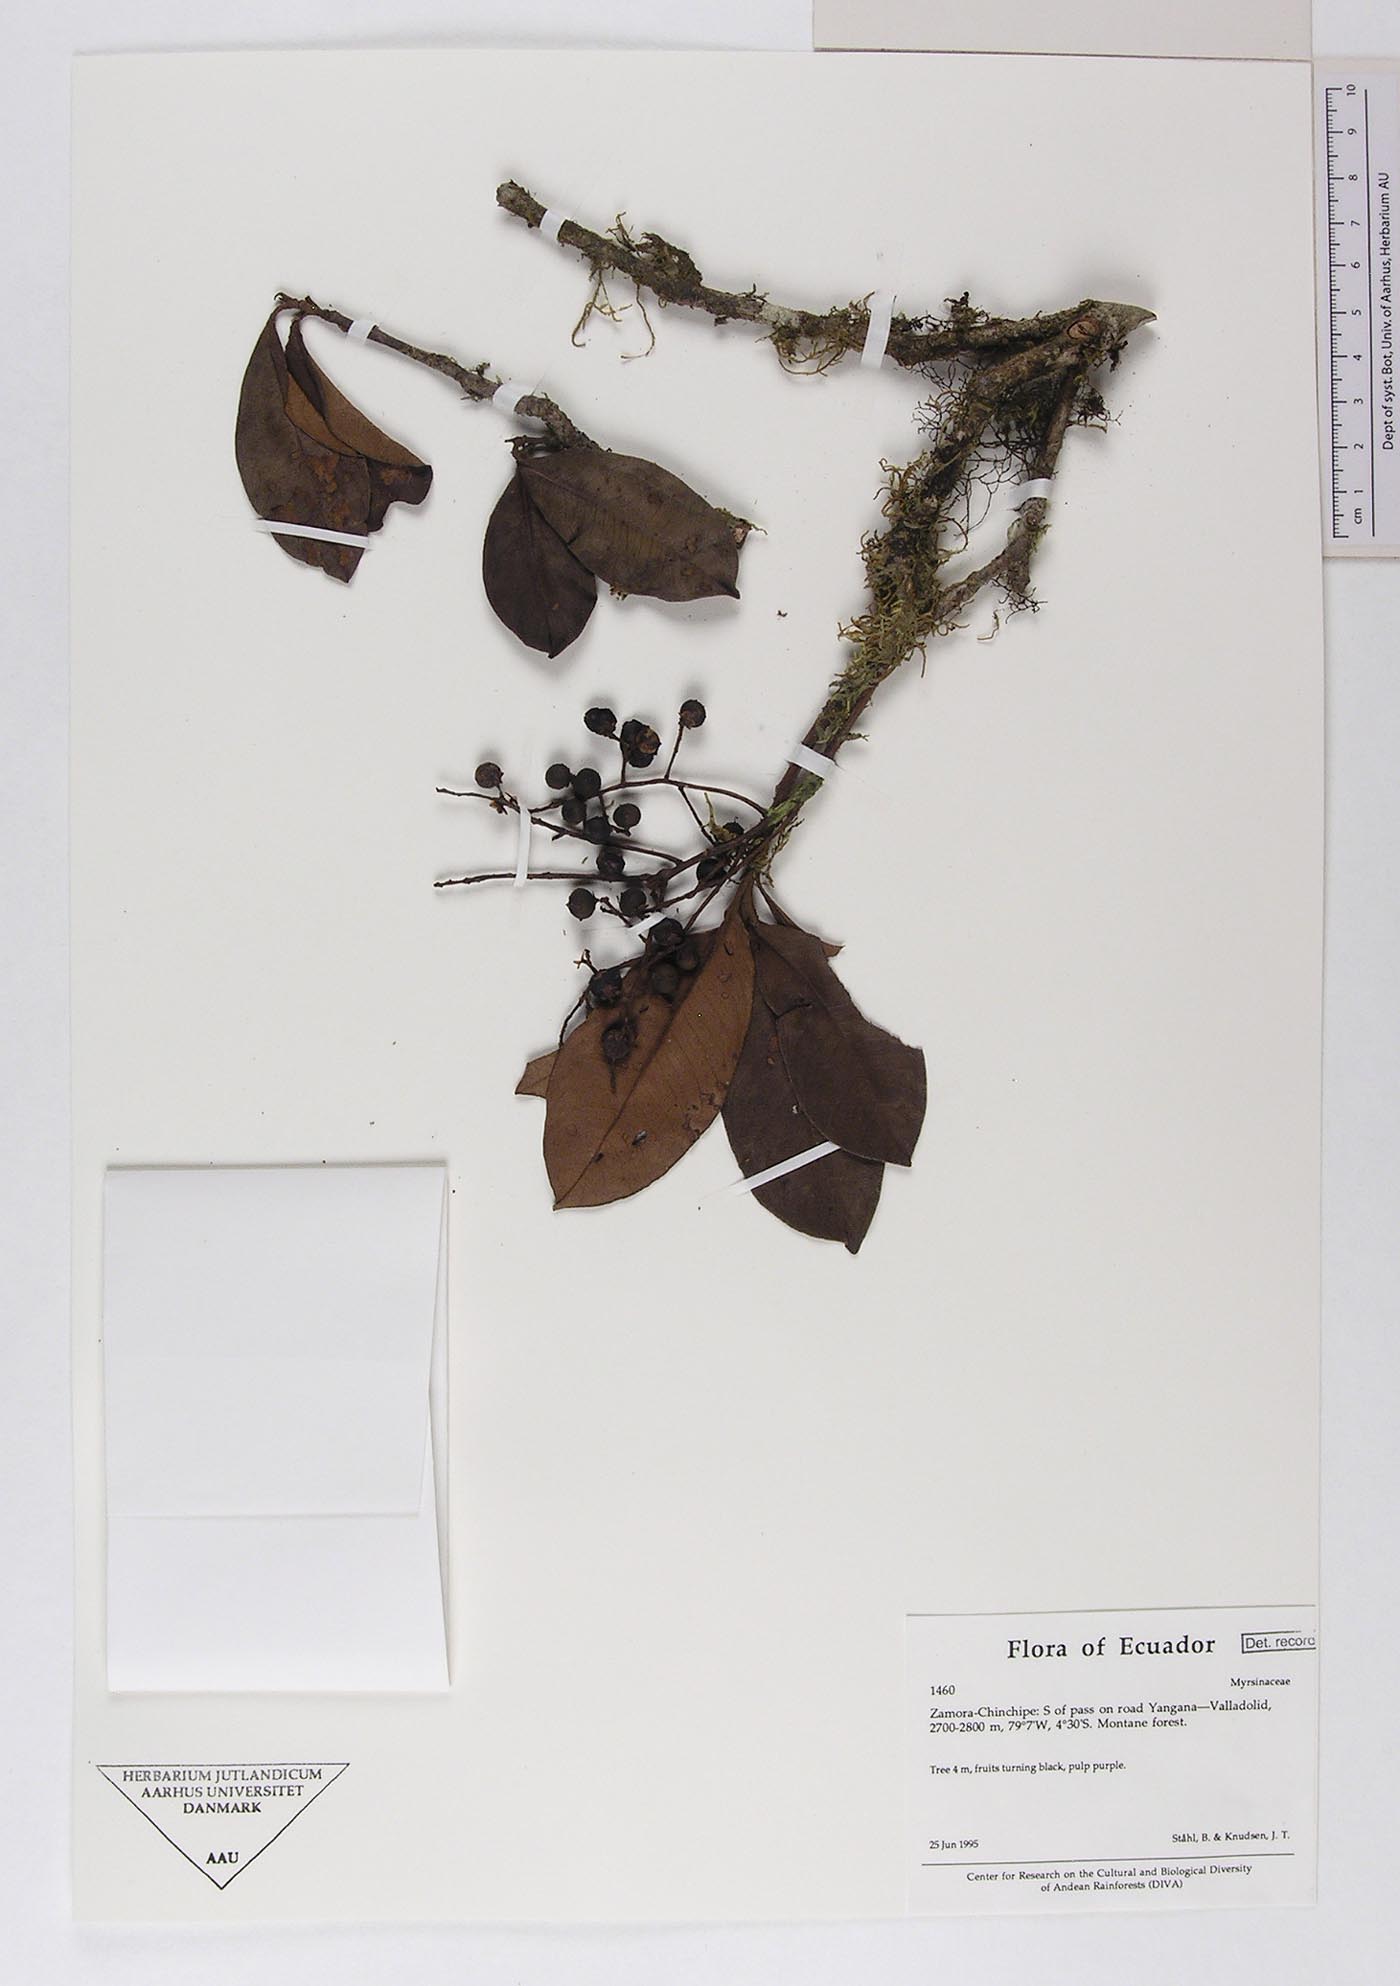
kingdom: Plantae
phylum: Tracheophyta
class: Magnoliopsida
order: Ericales
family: Primulaceae
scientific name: Primulaceae
